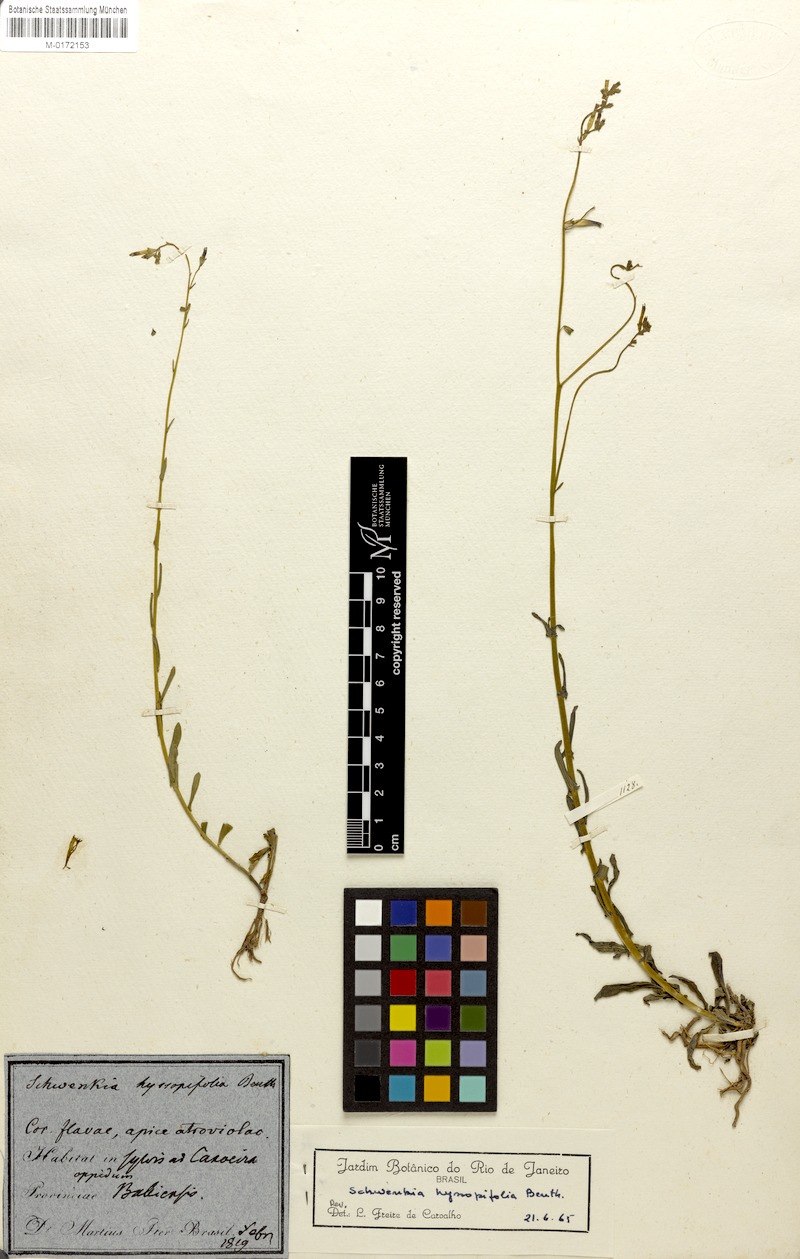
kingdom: Plantae
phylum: Tracheophyta
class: Magnoliopsida
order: Solanales
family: Solanaceae
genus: Schwenckia
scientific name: Schwenckia hyssopifolia
